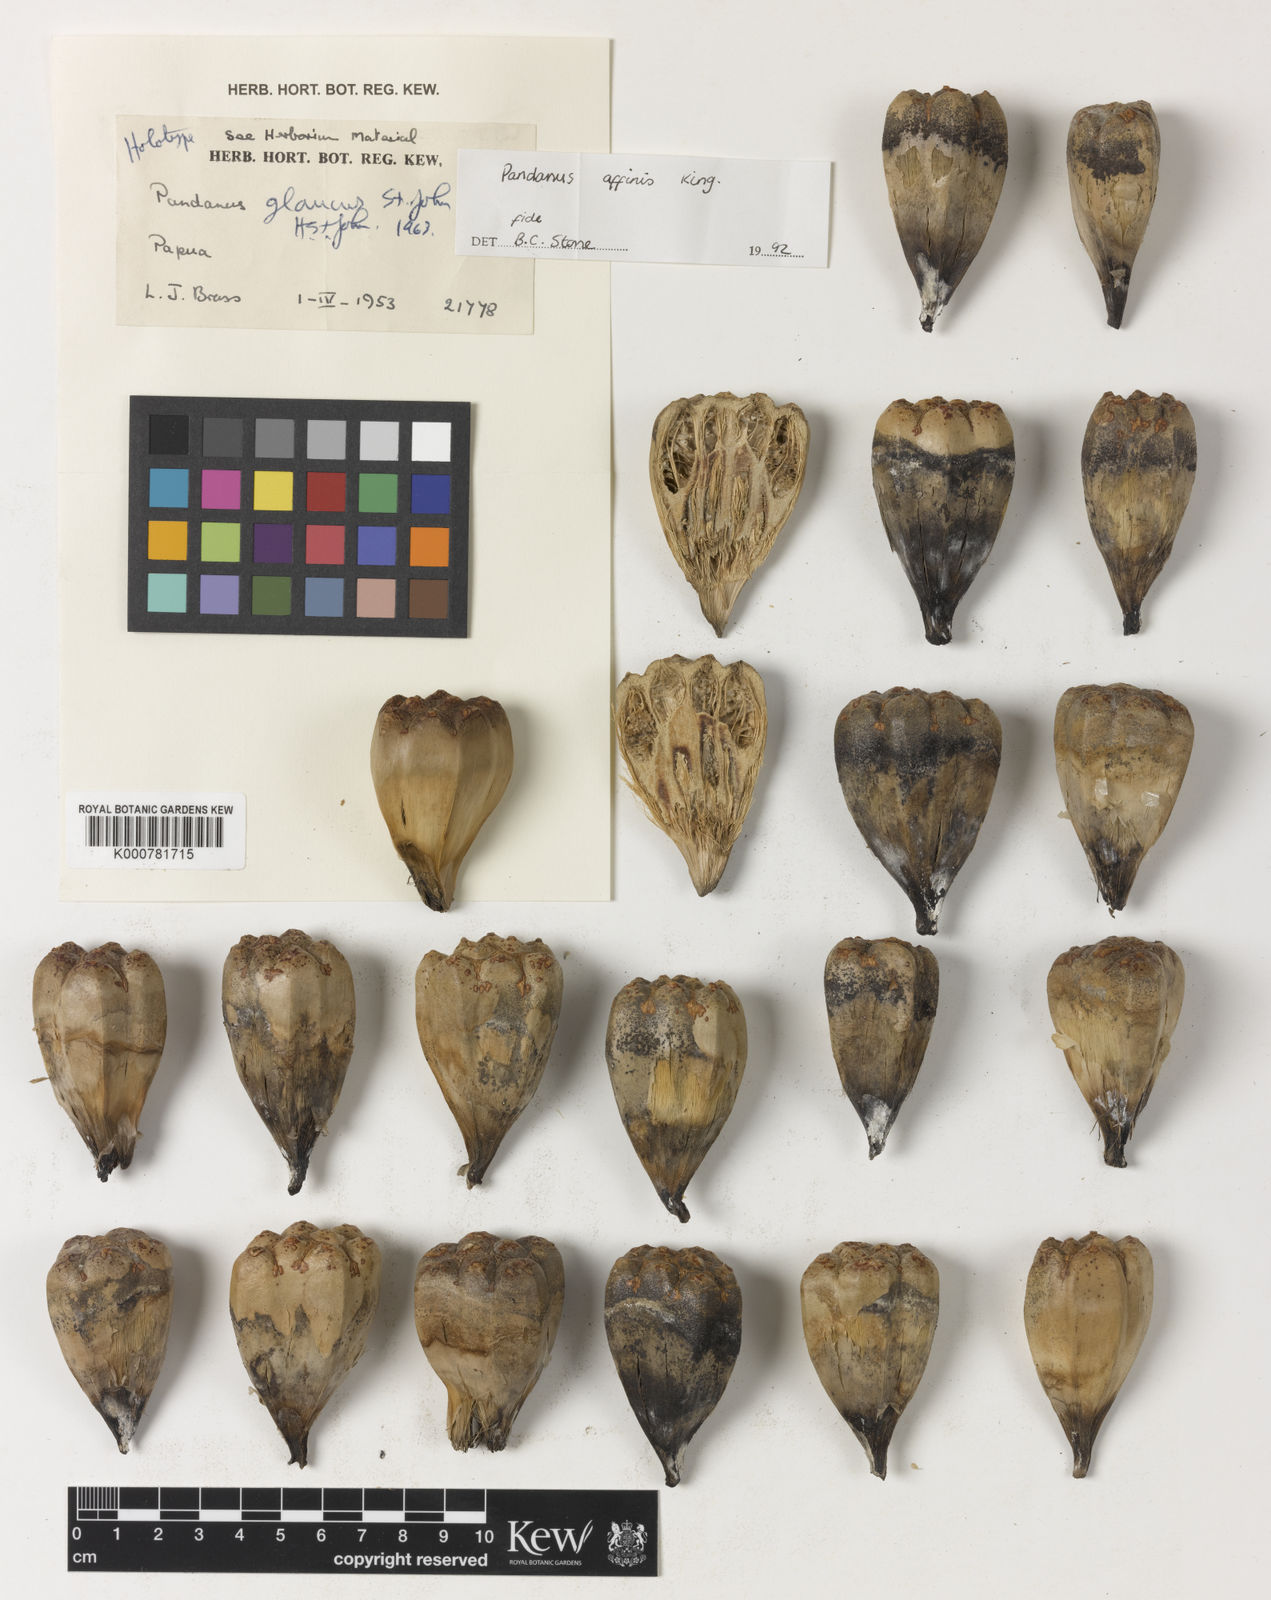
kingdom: Plantae
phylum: Tracheophyta
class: Liliopsida
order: Pandanales
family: Pandanaceae
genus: Benstonea
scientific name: Benstonea affinis
